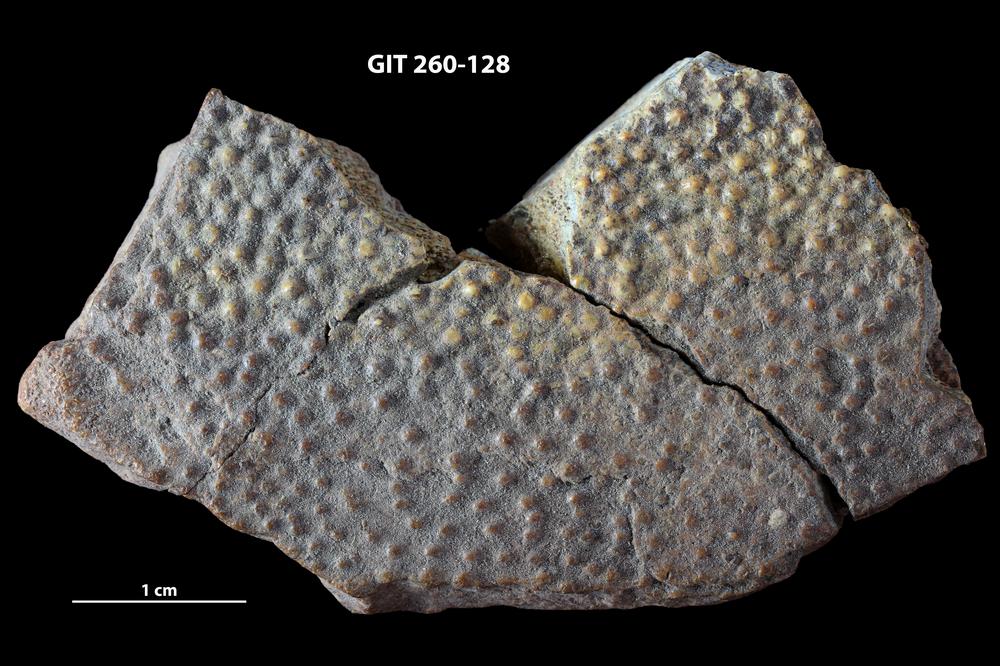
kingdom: Animalia
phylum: Chordata
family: Homostiidae
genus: Homostius
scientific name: Homostius
